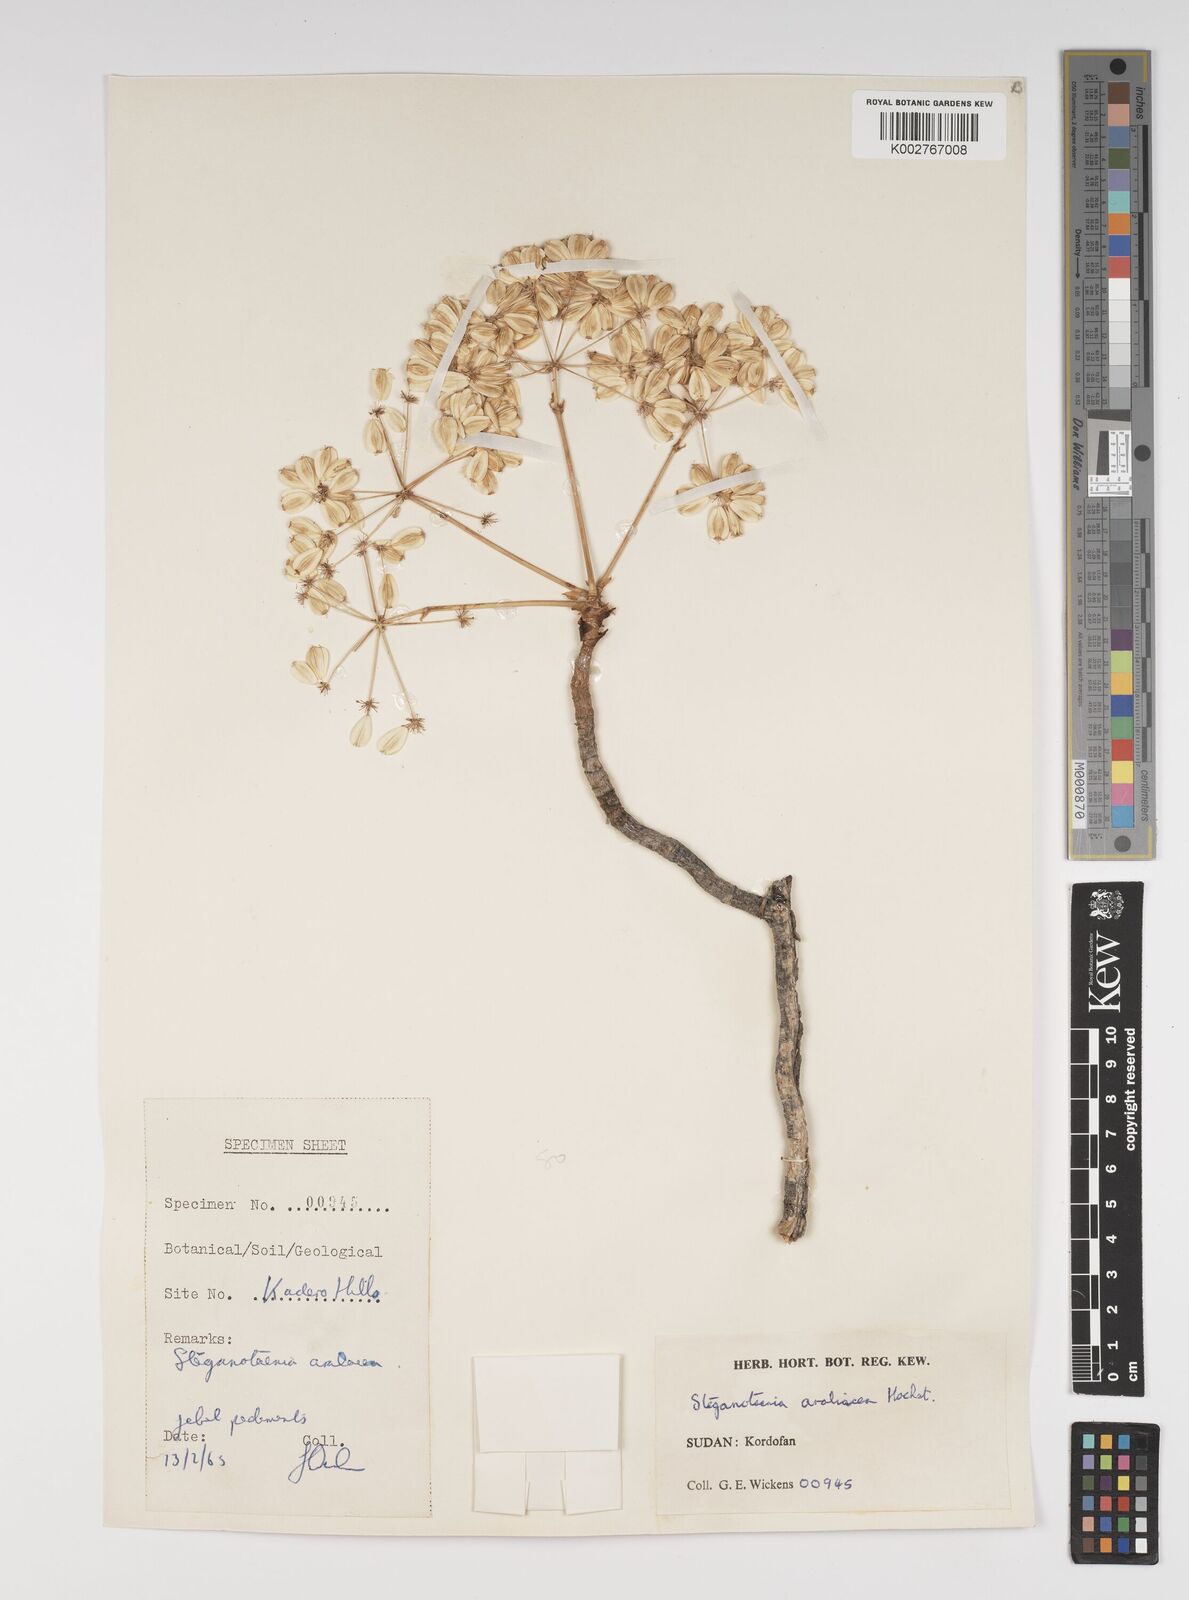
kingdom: Plantae
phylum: Tracheophyta
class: Magnoliopsida
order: Apiales
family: Apiaceae
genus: Steganotaenia
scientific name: Steganotaenia araliacea
